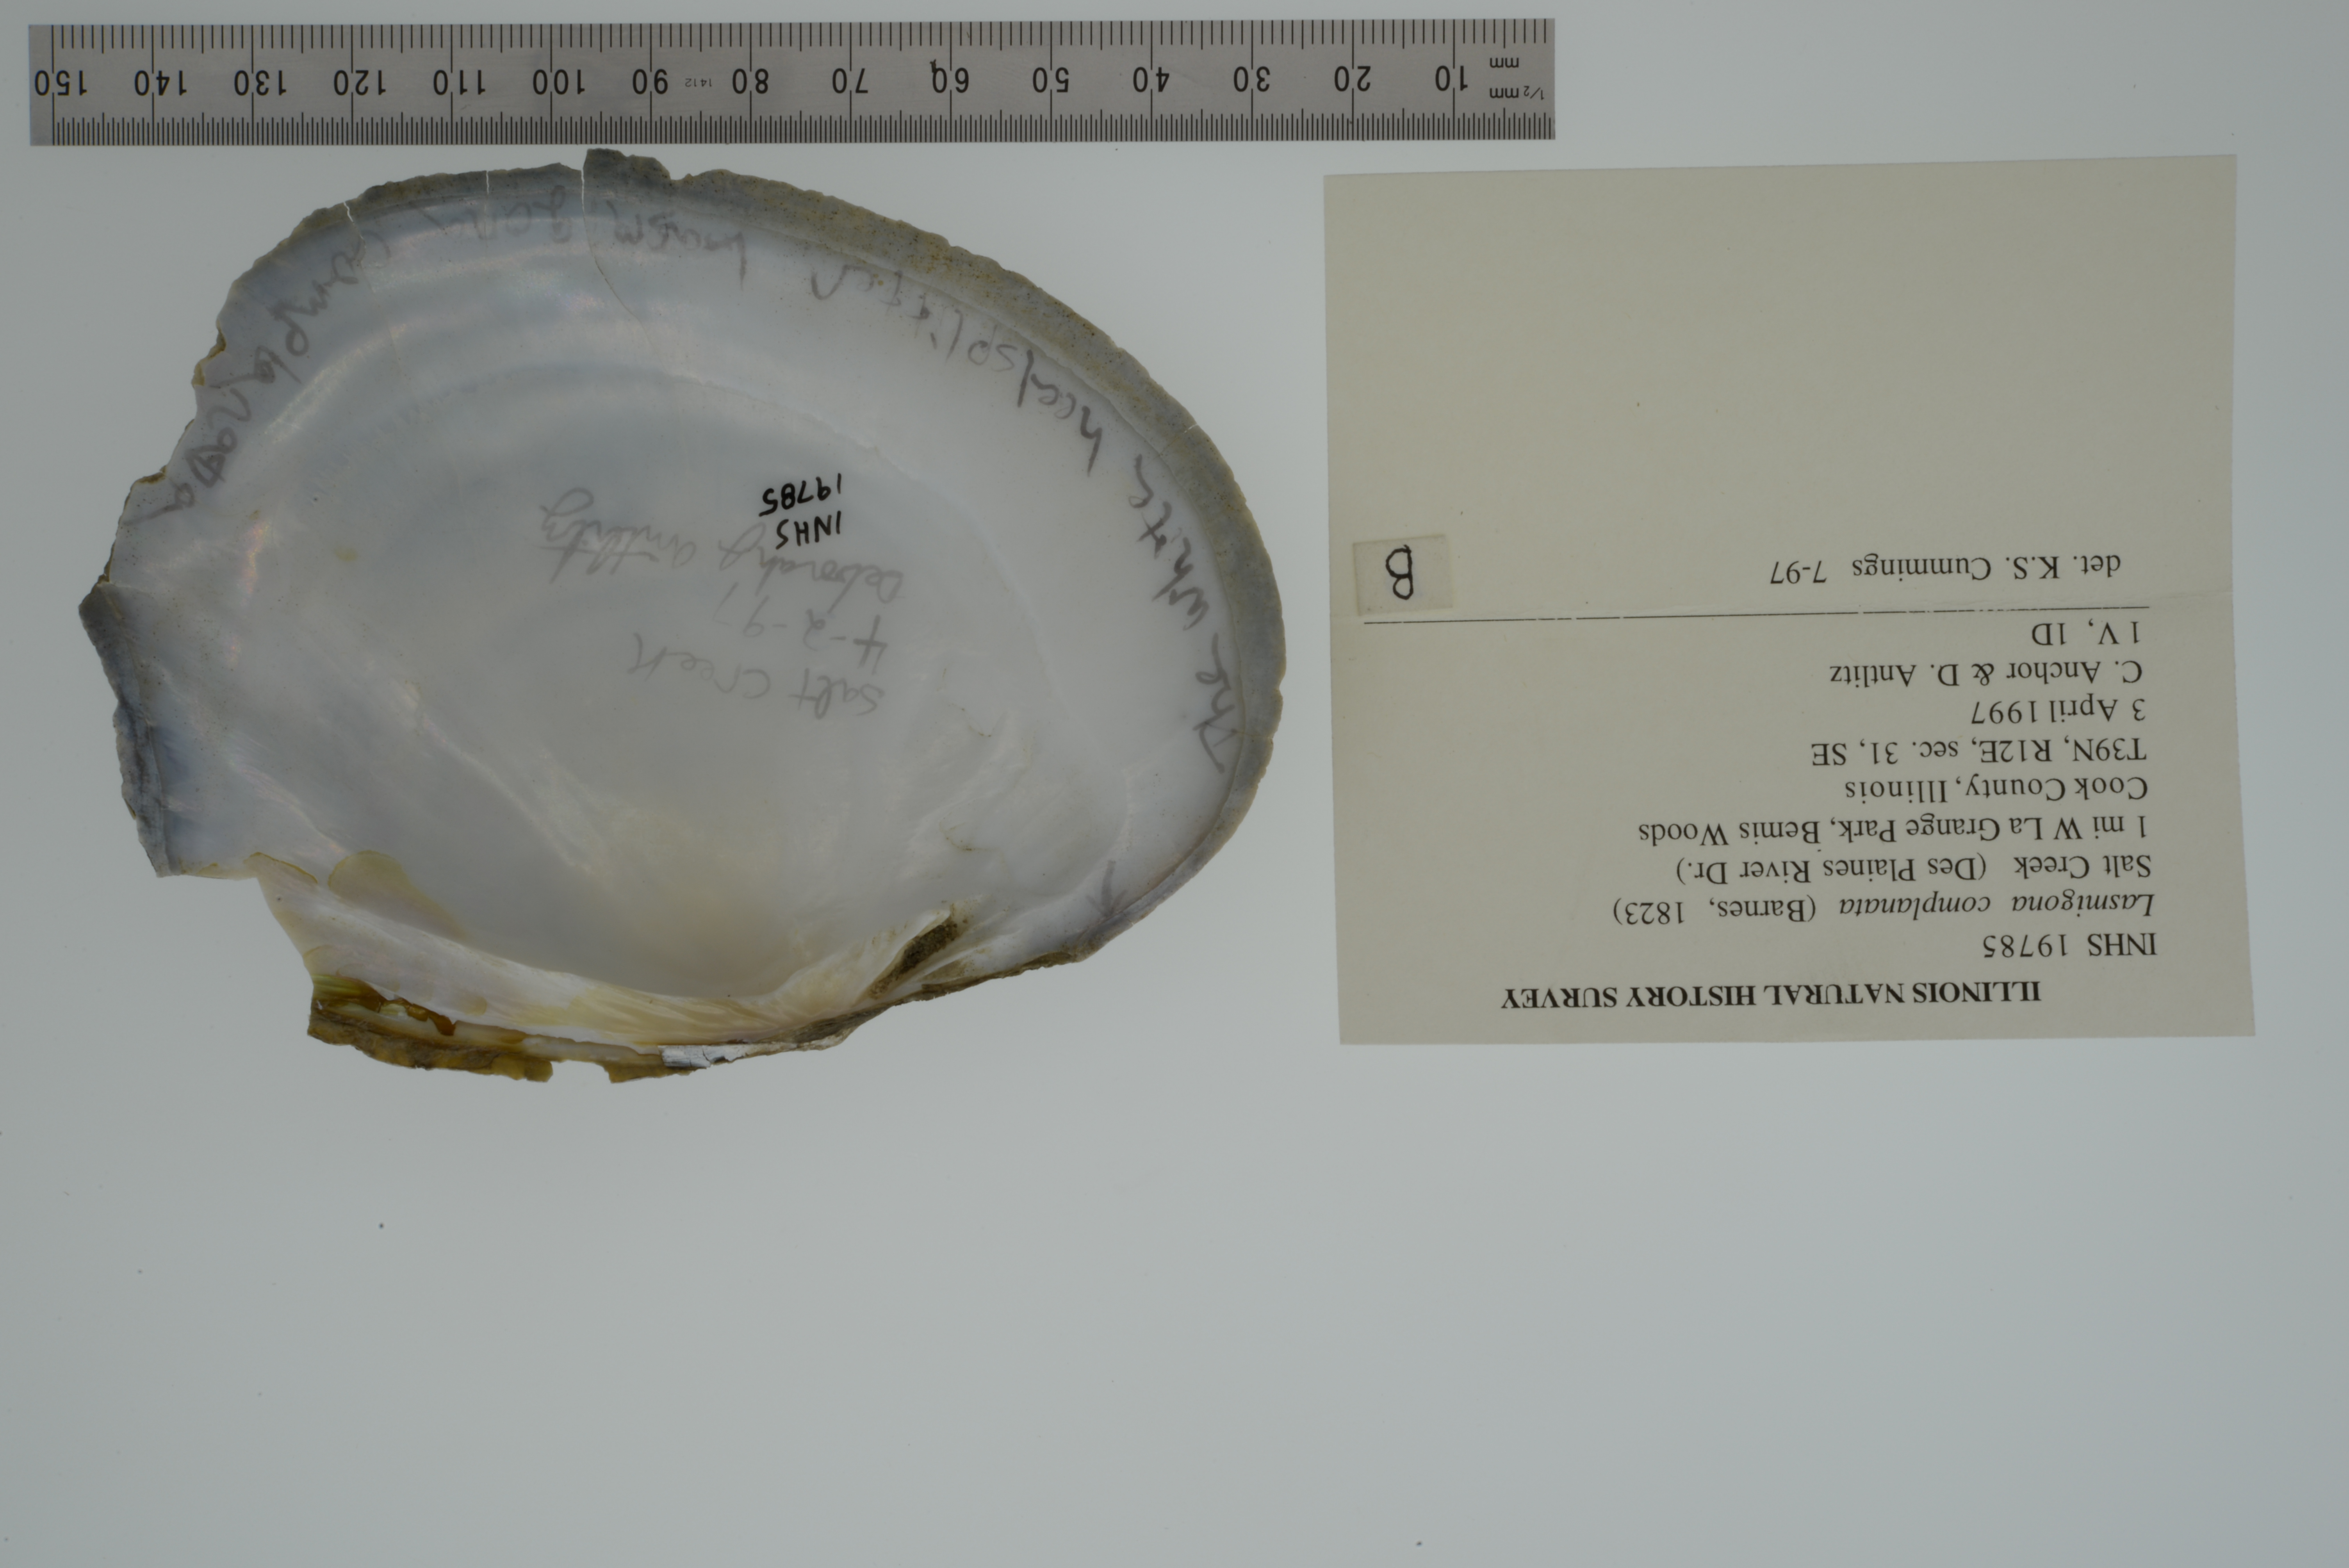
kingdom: Animalia
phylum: Mollusca
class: Bivalvia
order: Unionida
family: Unionidae
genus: Lasmigona
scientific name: Lasmigona complanata
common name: White heelsplitter
